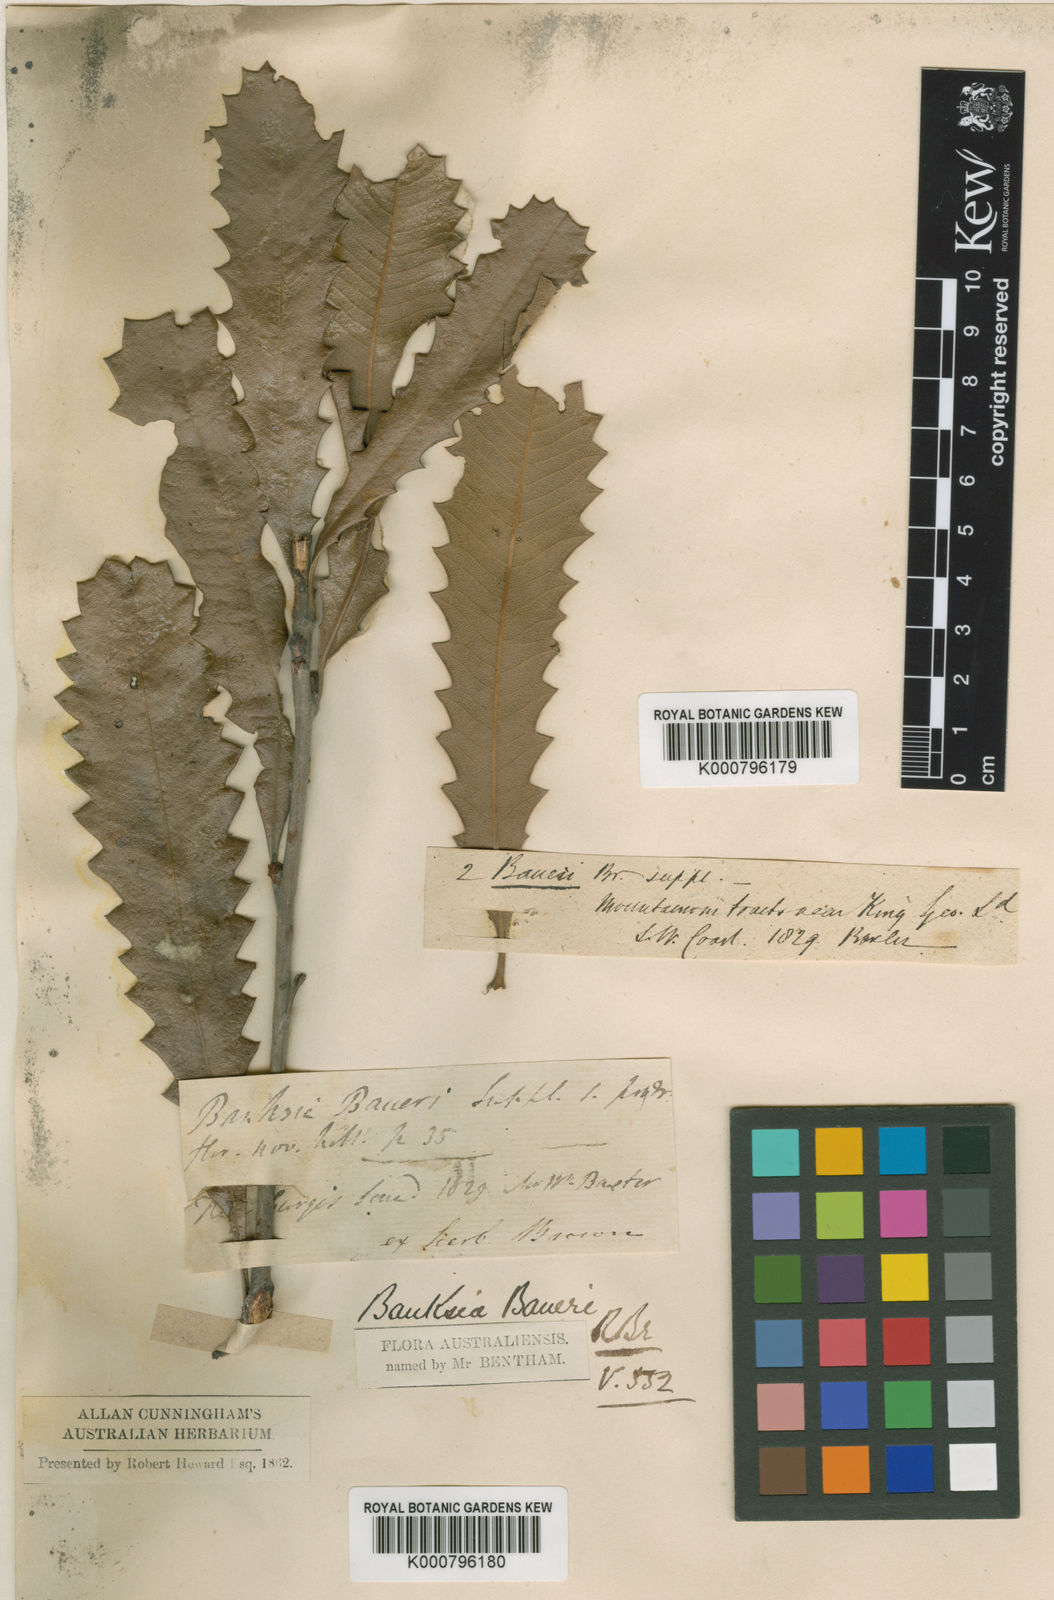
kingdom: Plantae
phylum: Tracheophyta
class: Magnoliopsida
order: Proteales
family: Proteaceae
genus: Banksia
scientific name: Banksia baueri
